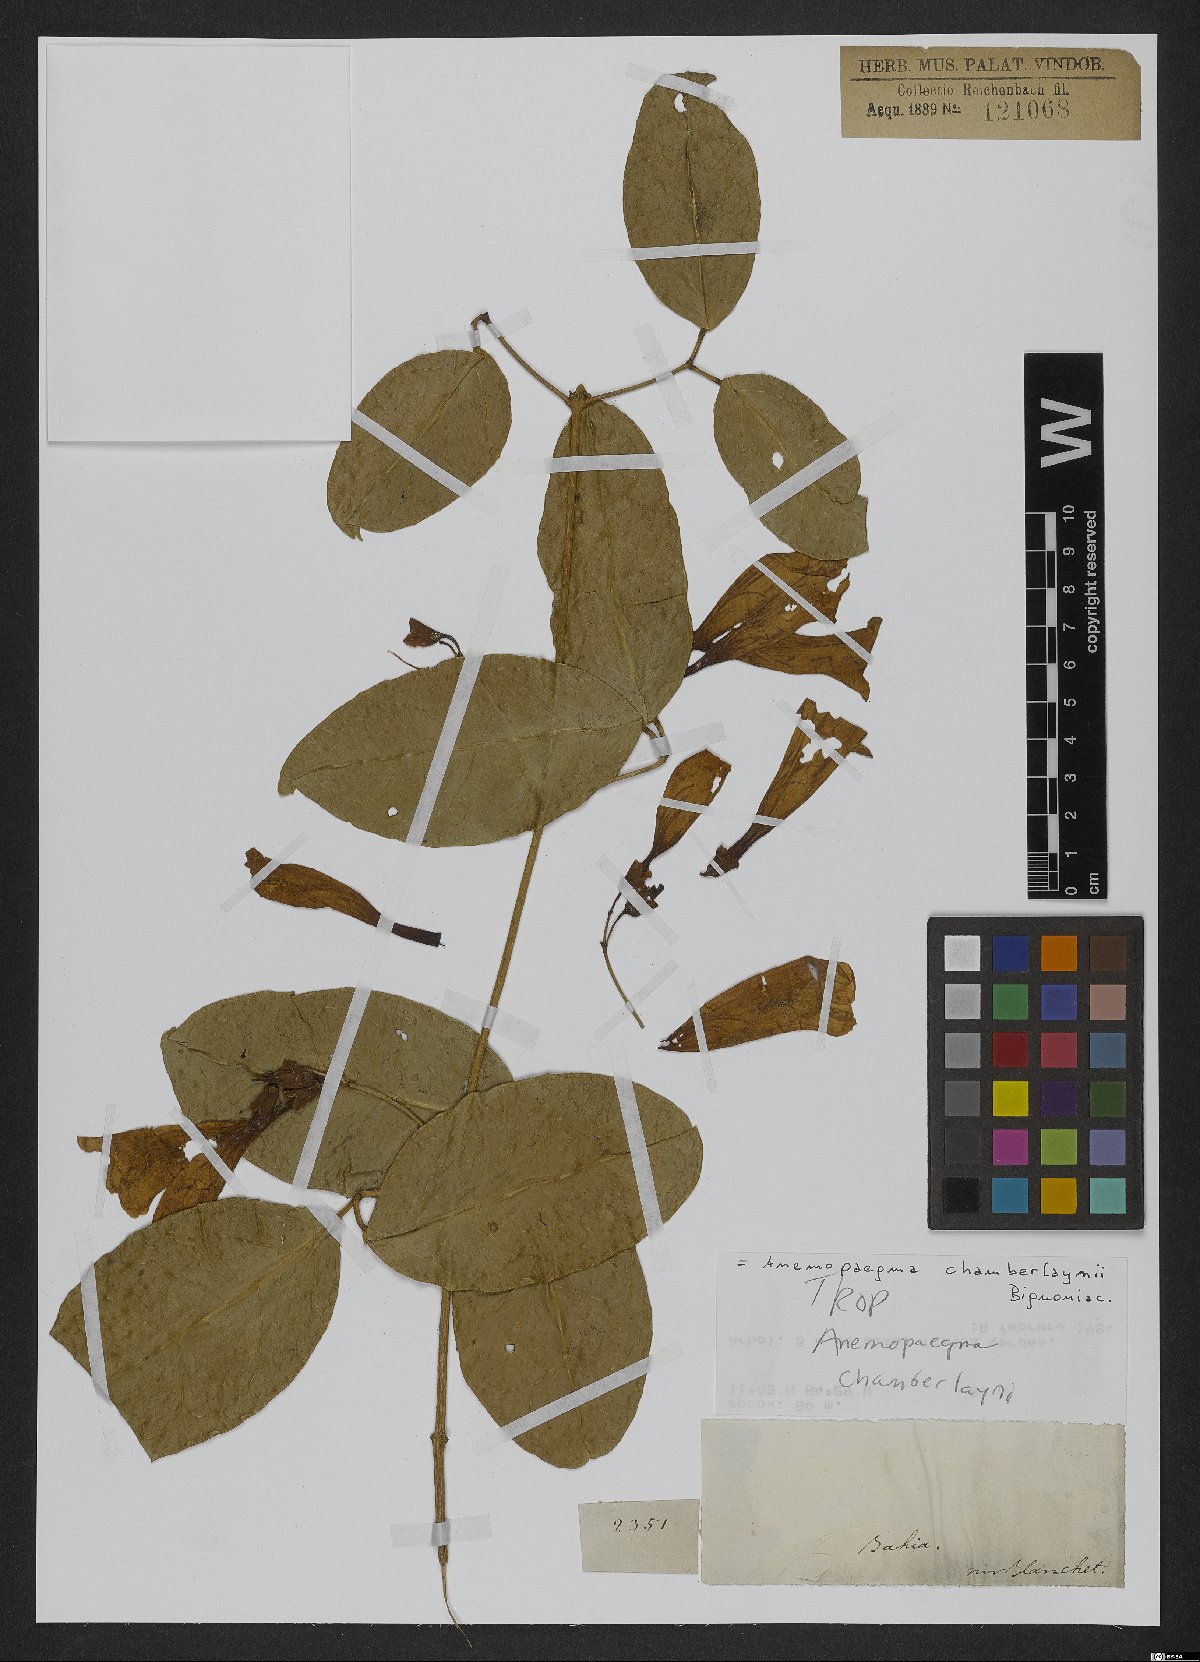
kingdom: Plantae
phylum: Tracheophyta
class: Magnoliopsida
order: Lamiales
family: Bignoniaceae
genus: Anemopaegma
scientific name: Anemopaegma chamberlaynii
